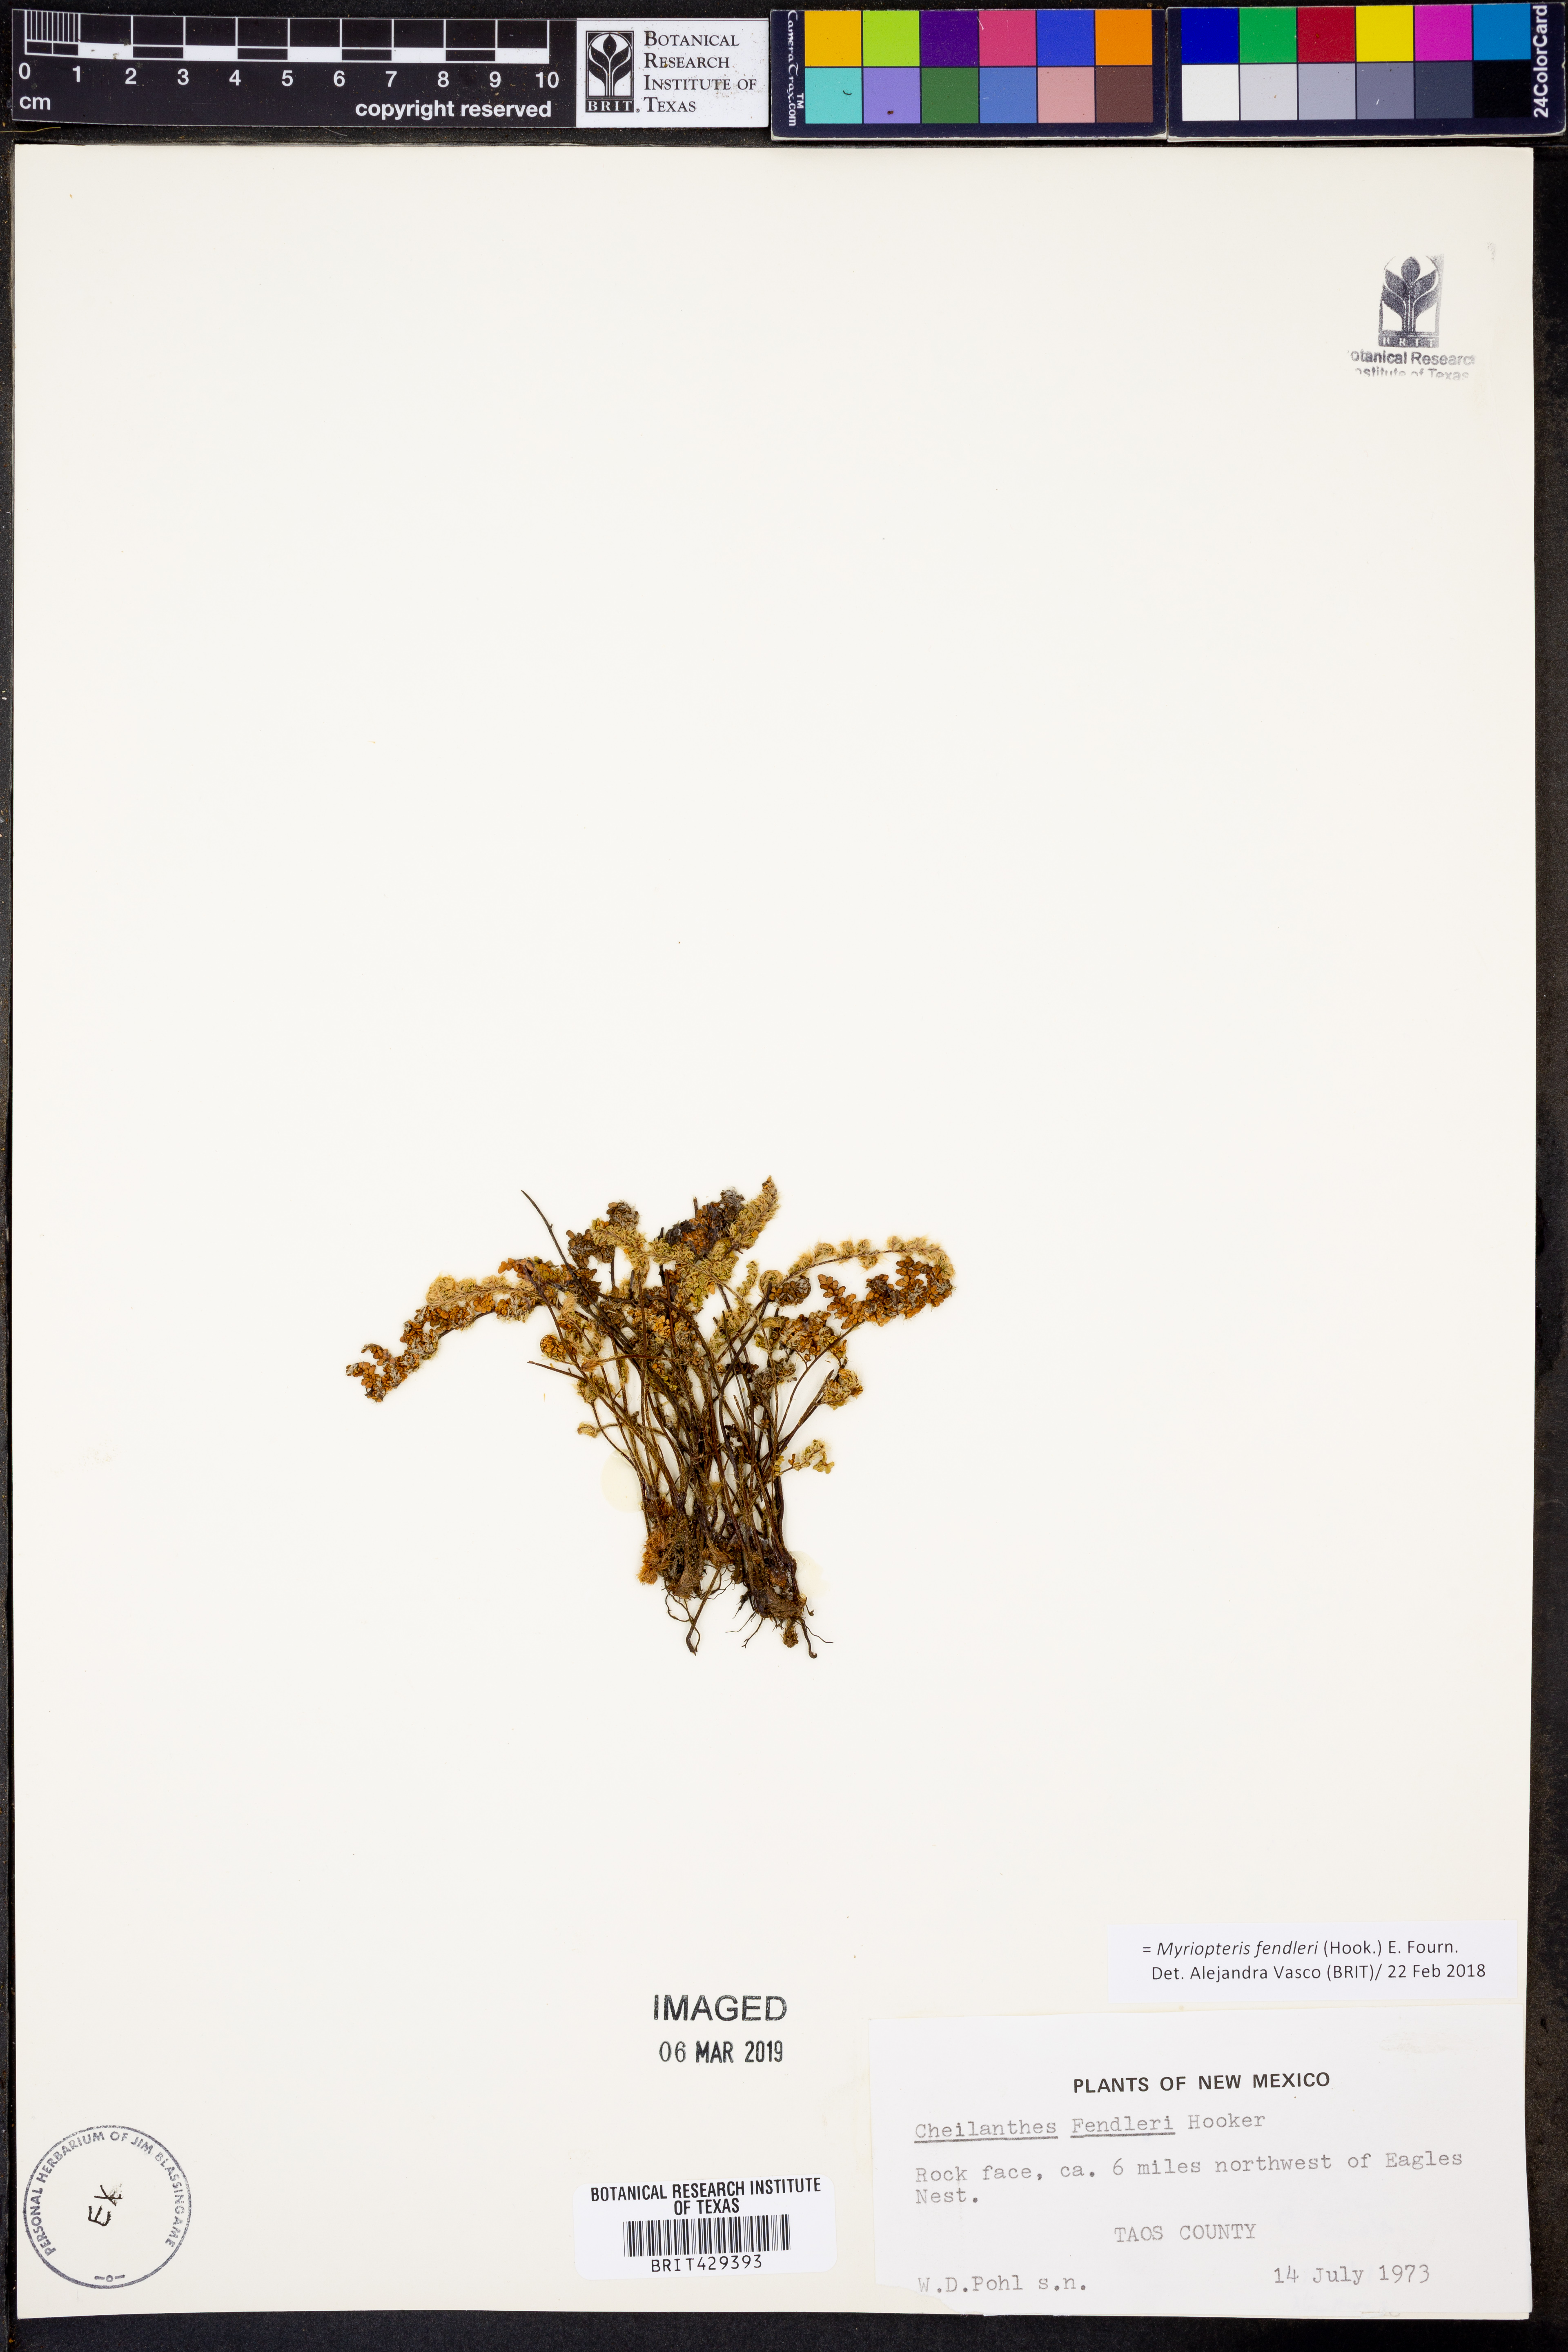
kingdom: Plantae
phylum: Tracheophyta
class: Polypodiopsida
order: Polypodiales
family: Pteridaceae
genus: Myriopteris
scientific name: Myriopteris fendleri
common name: Fendler's lip fern
